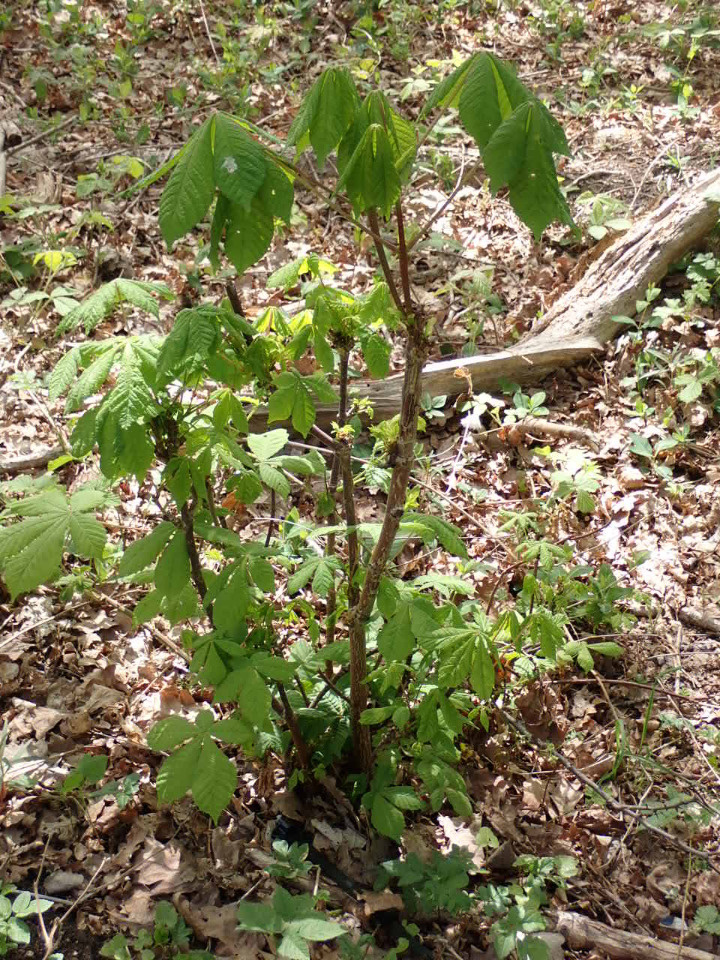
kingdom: Plantae
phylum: Tracheophyta
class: Magnoliopsida
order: Sapindales
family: Sapindaceae
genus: Aesculus
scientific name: Aesculus hippocastanum
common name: Hestekastanie
